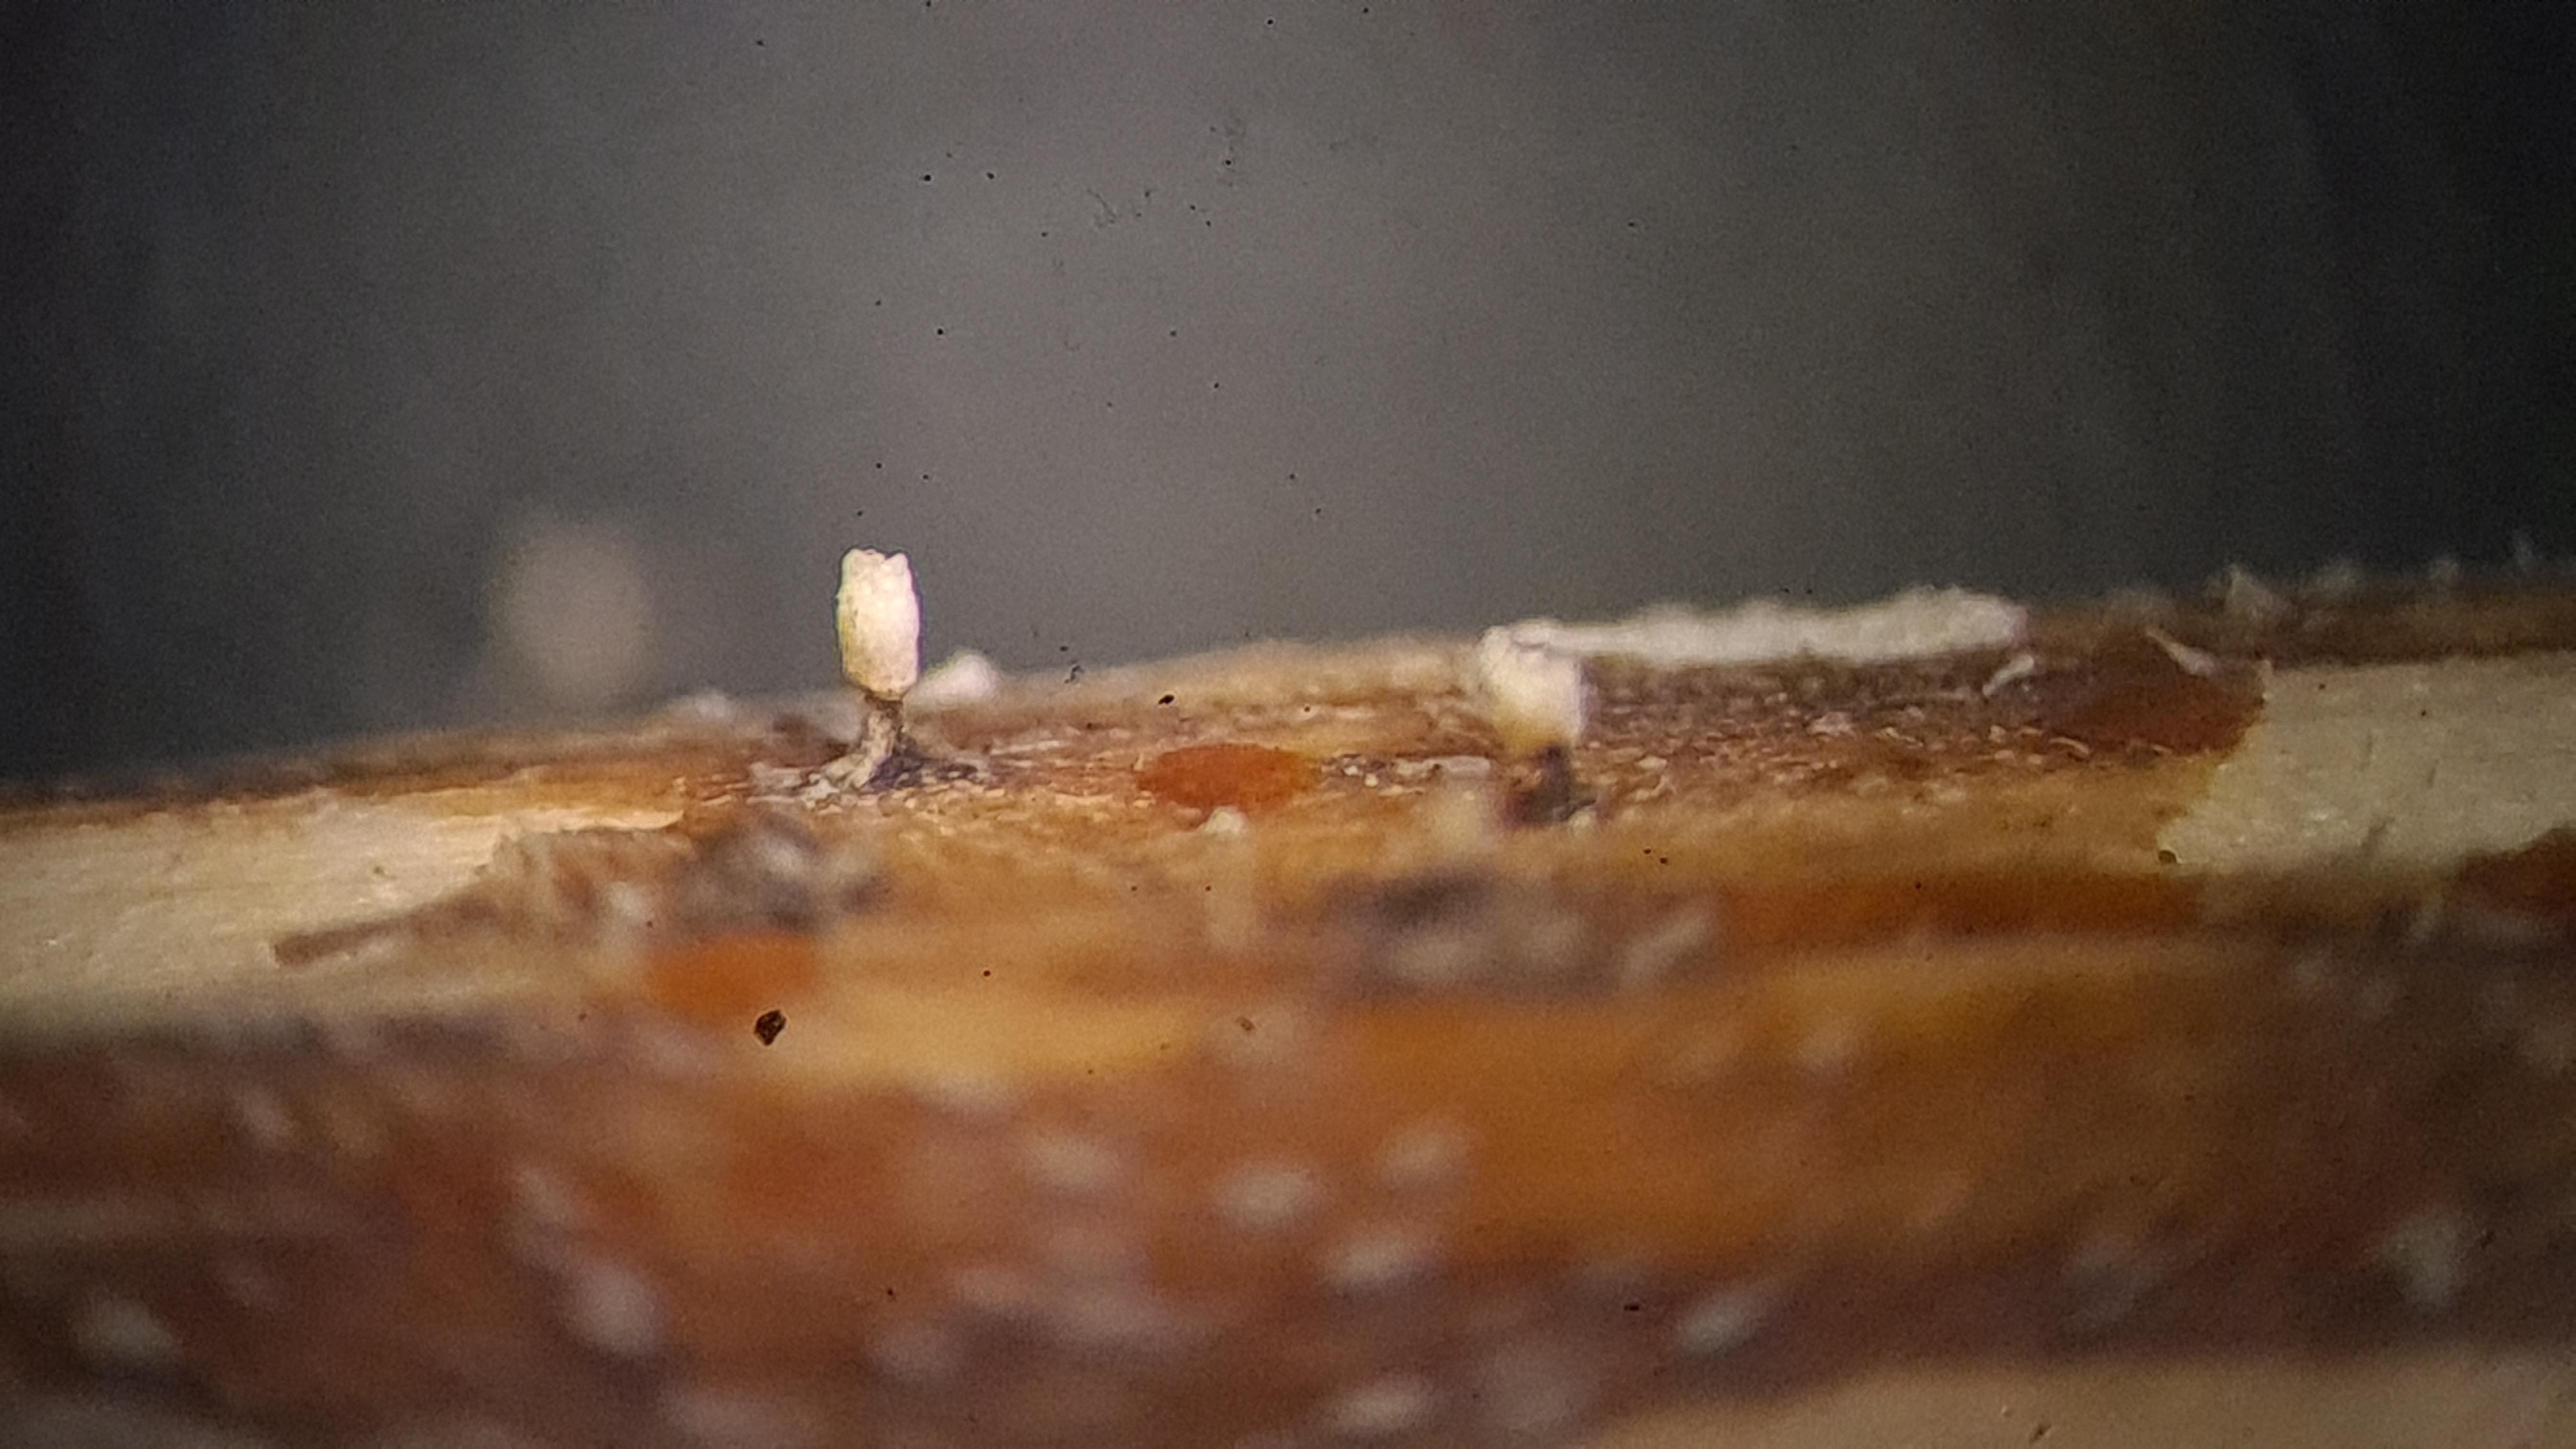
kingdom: Fungi
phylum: Ascomycota
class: Leotiomycetes
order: Helotiales
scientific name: Helotiales
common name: stilkskiveordenen
